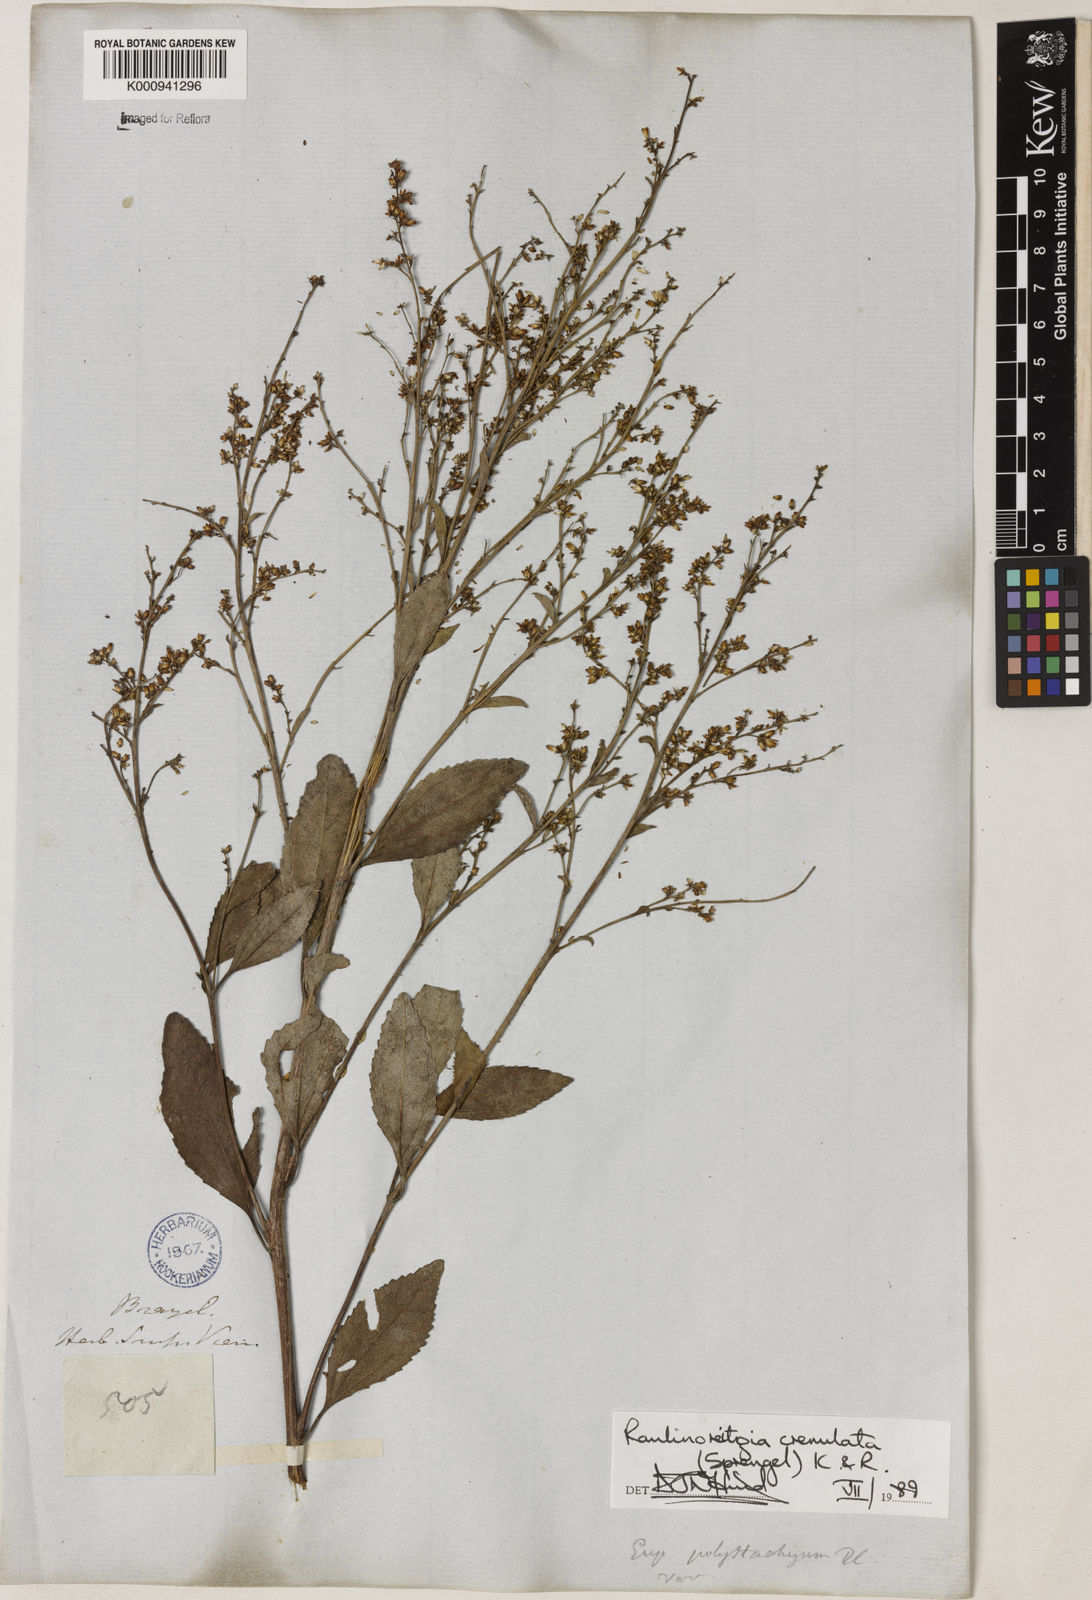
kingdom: Plantae
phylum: Tracheophyta
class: Magnoliopsida
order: Asterales
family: Asteraceae
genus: Raulinoreitzia
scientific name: Raulinoreitzia crenulata
